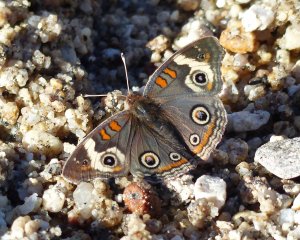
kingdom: Animalia
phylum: Arthropoda
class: Insecta
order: Lepidoptera
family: Nymphalidae
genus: Junonia
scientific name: Junonia coenia
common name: Common Buckeye
